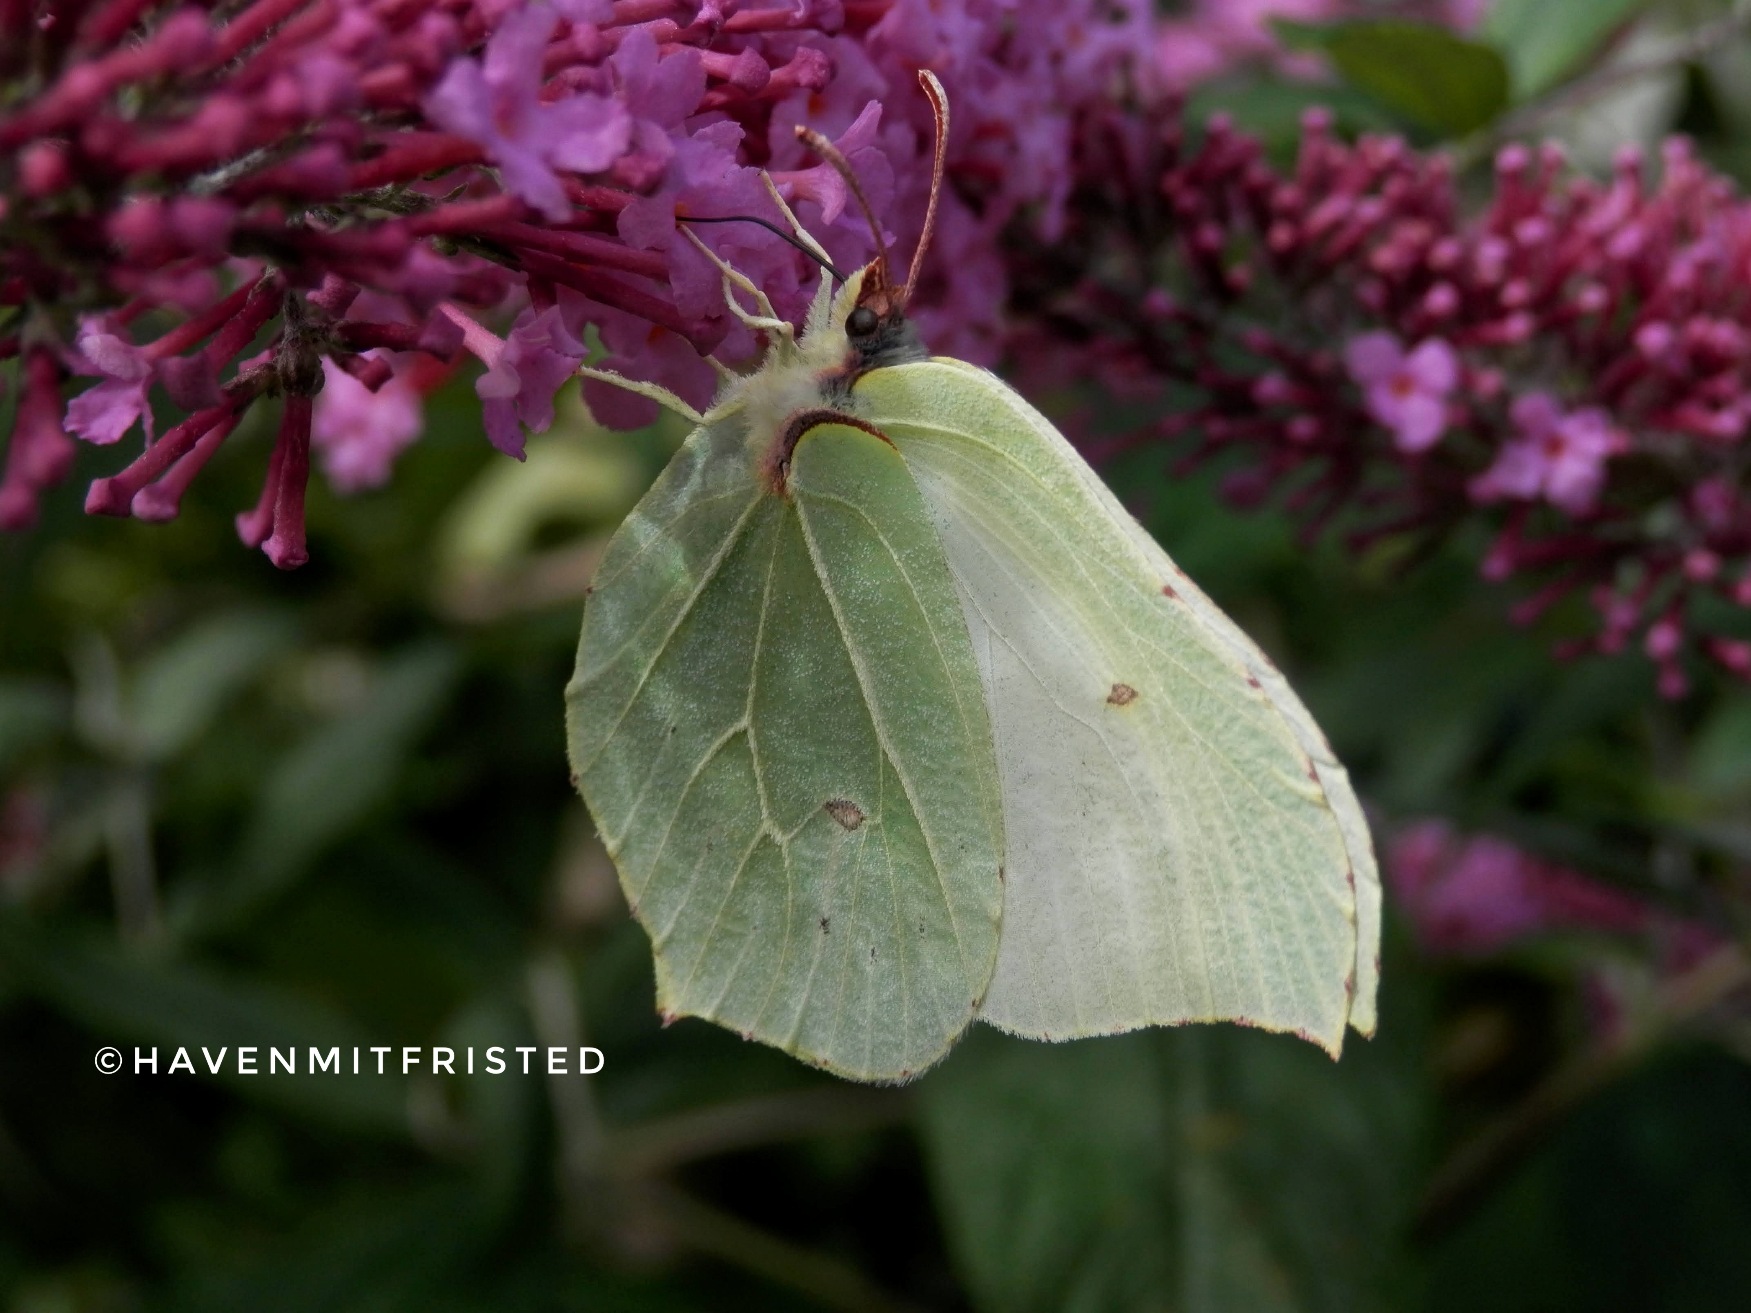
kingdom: Animalia
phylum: Arthropoda
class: Insecta
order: Lepidoptera
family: Pieridae
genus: Gonepteryx
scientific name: Gonepteryx rhamni
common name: Citronsommerfugl
